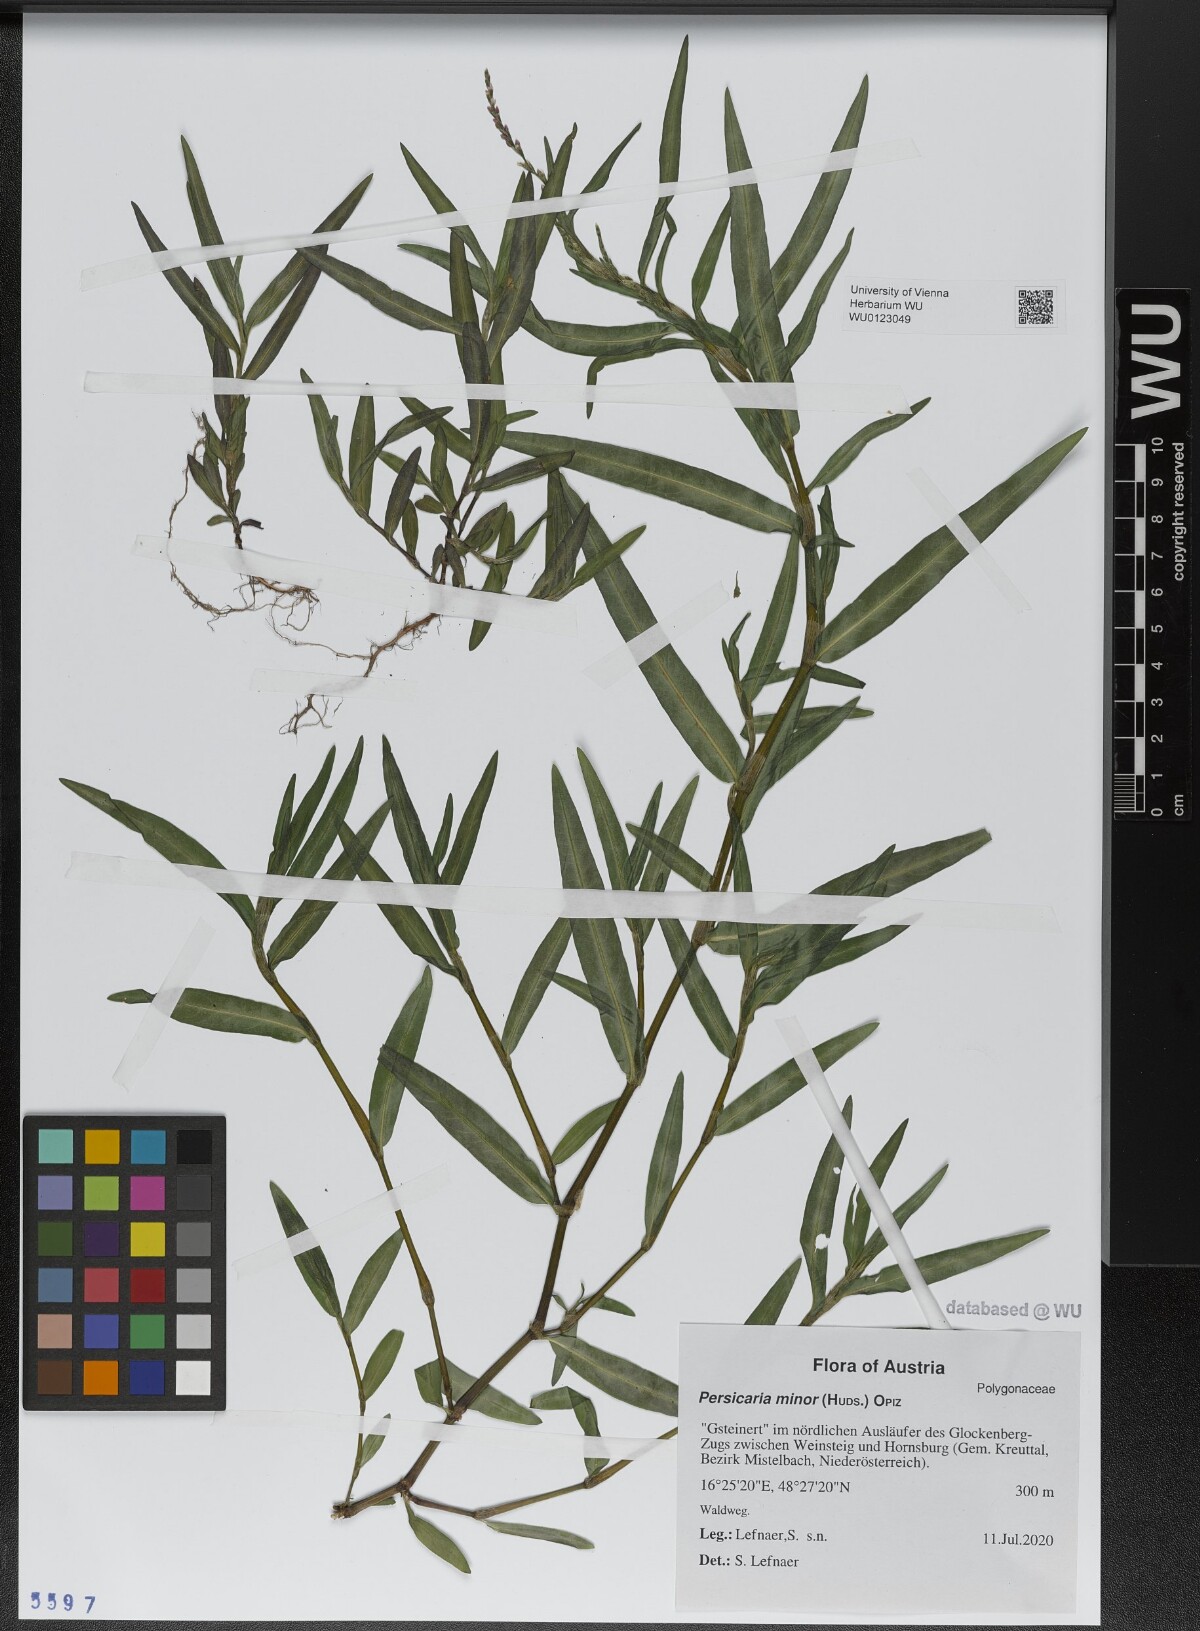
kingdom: Plantae
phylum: Tracheophyta
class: Magnoliopsida
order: Caryophyllales
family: Polygonaceae
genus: Persicaria
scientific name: Persicaria minor
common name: Small water-pepper
